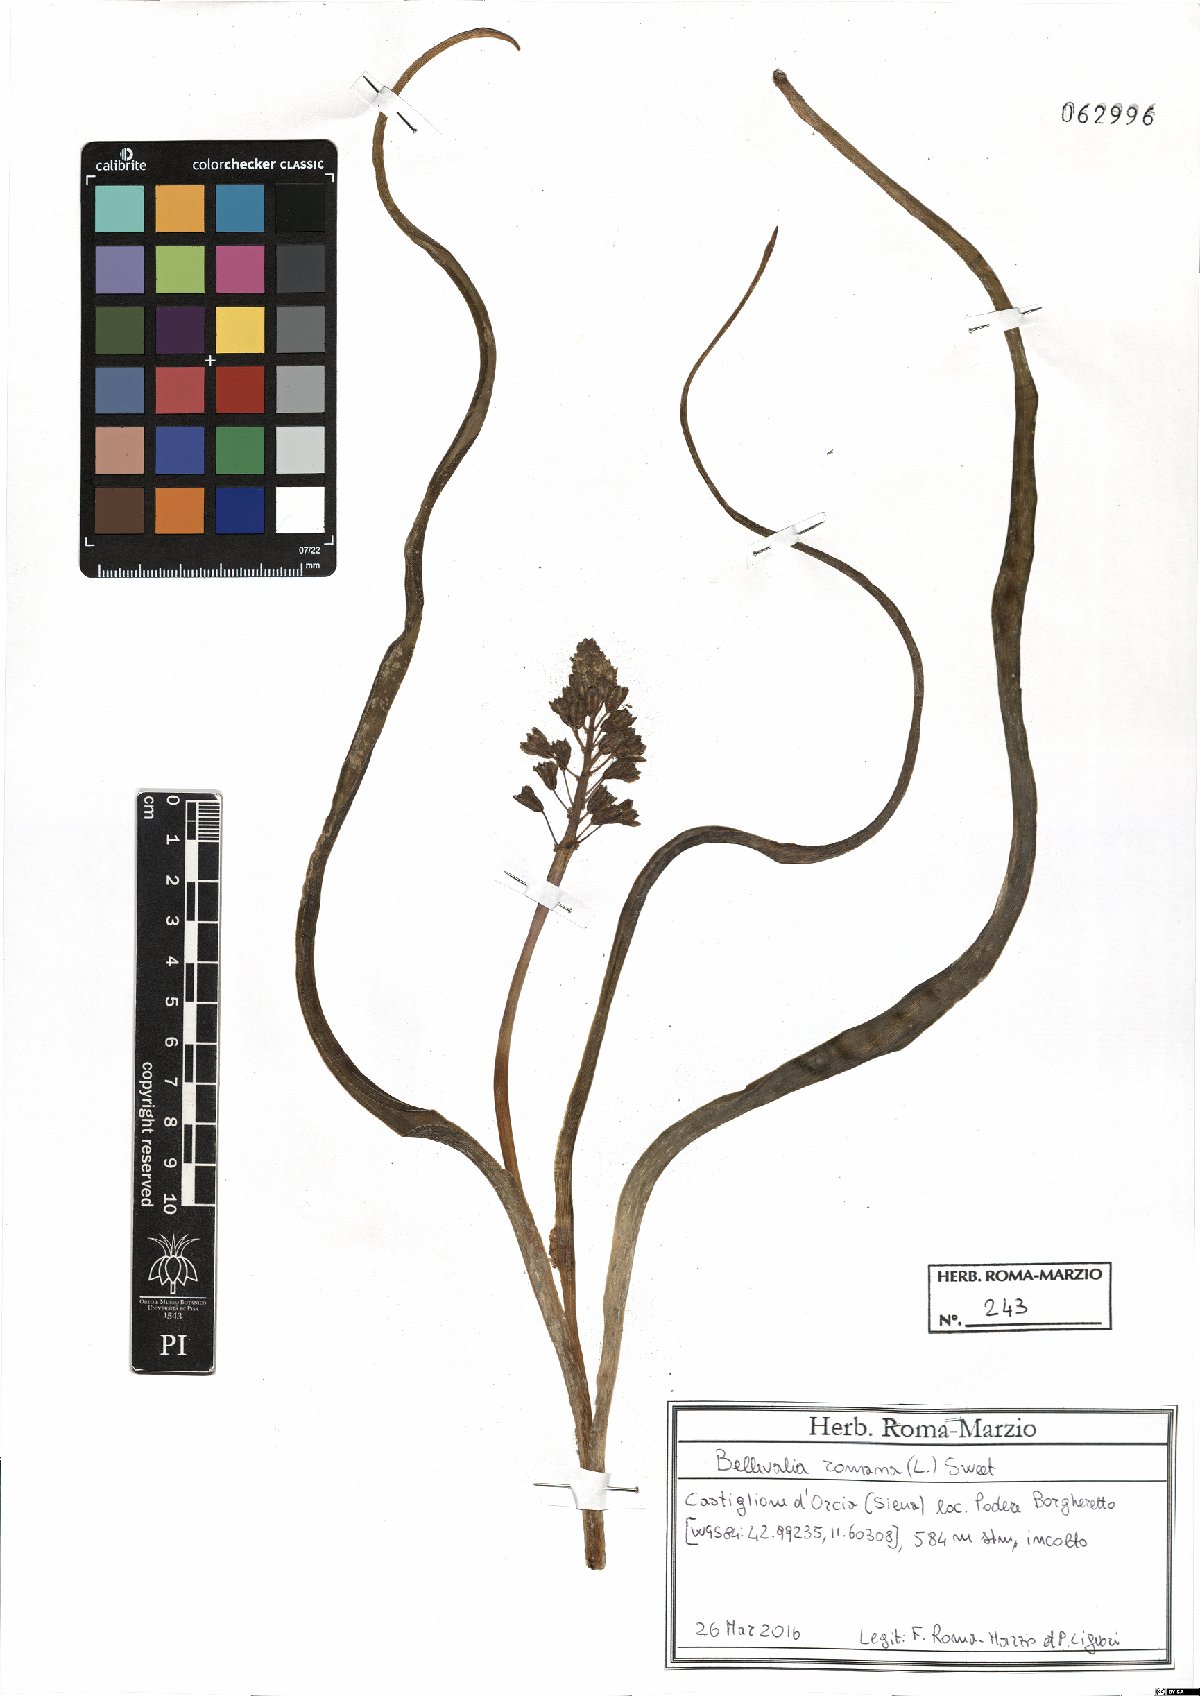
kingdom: Plantae
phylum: Tracheophyta
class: Liliopsida
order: Asparagales
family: Asparagaceae
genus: Bellevalia
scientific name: Bellevalia romana
